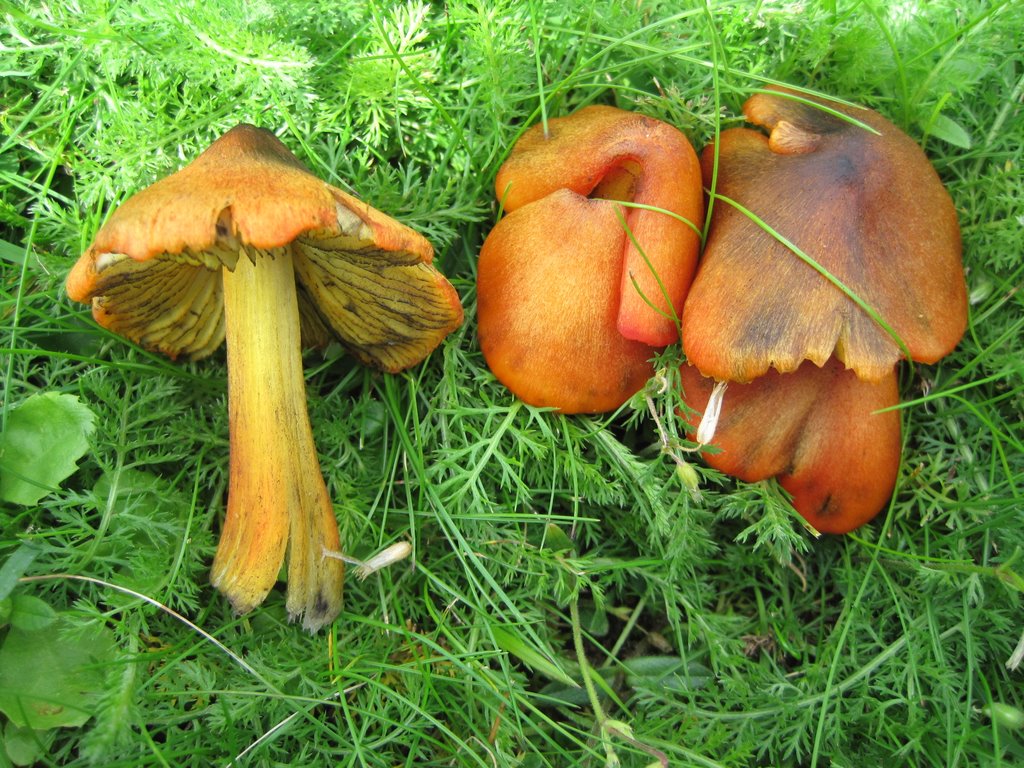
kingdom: Fungi
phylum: Basidiomycota
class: Agaricomycetes
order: Agaricales
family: Hygrophoraceae
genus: Hygrocybe
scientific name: Hygrocybe conica
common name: kegle-vokshat
